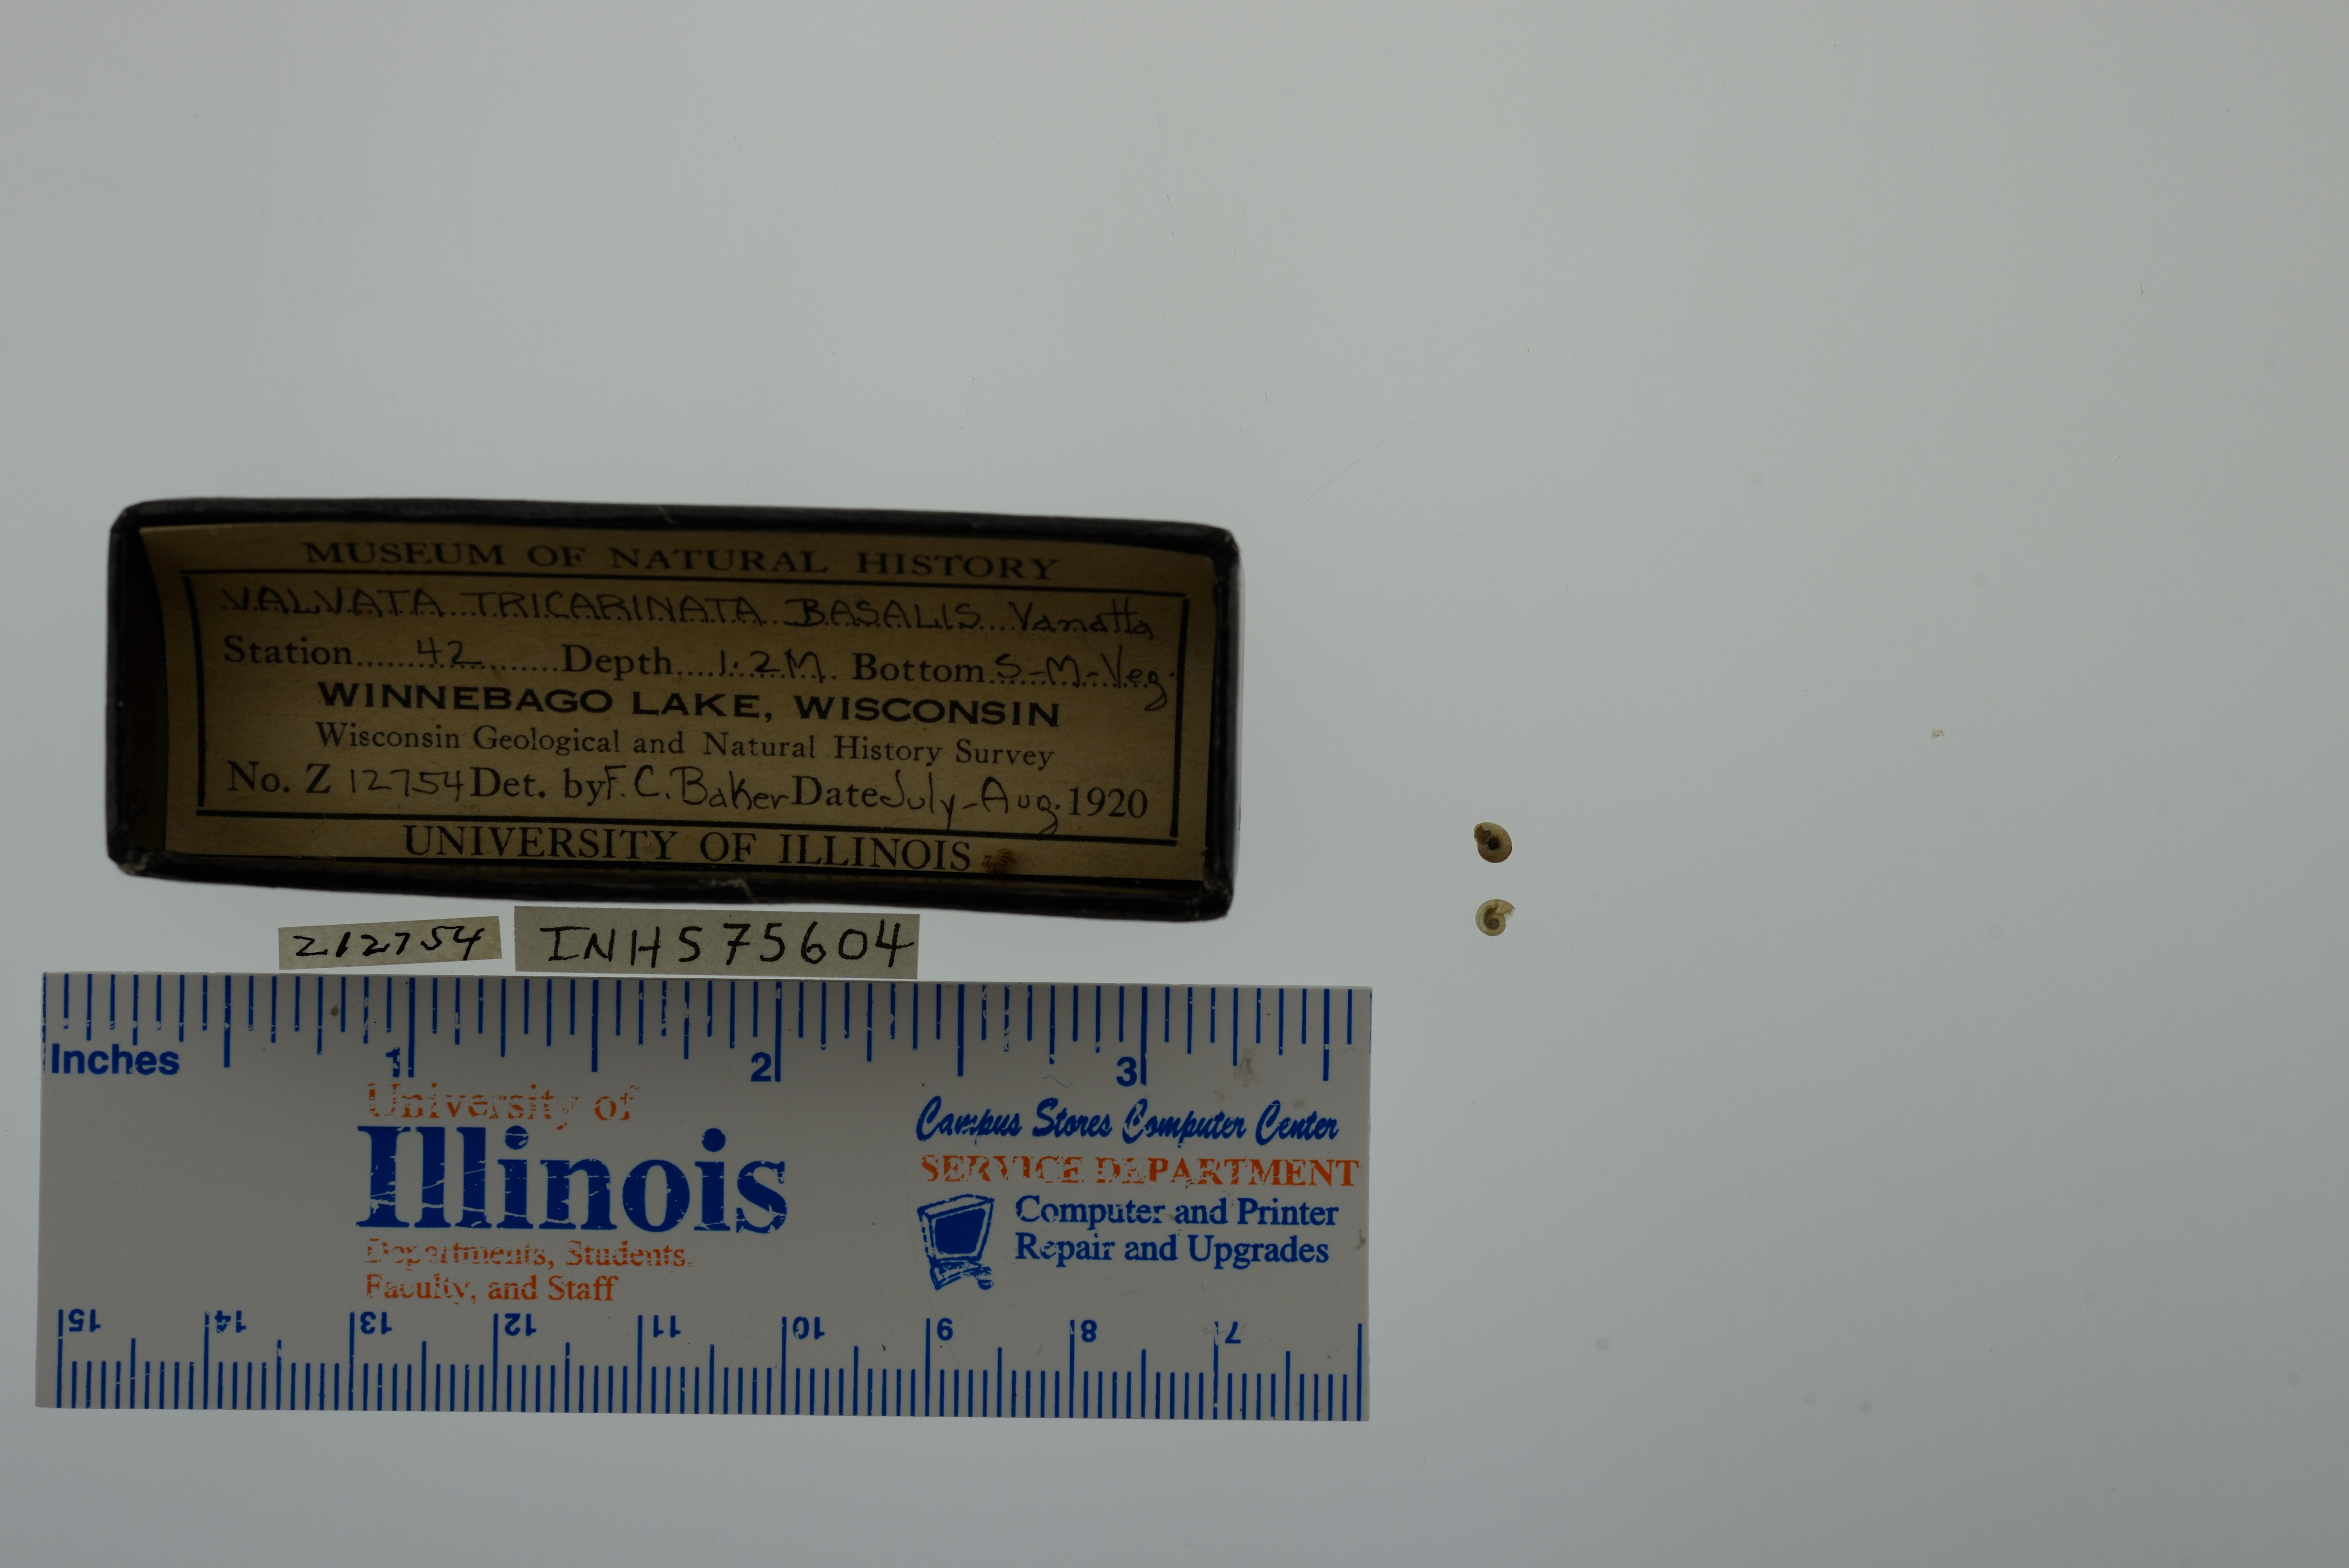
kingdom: Animalia
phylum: Mollusca
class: Gastropoda
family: Valvatidae
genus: Valvata
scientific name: Valvata tricarinata
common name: Three-ridge valvata
